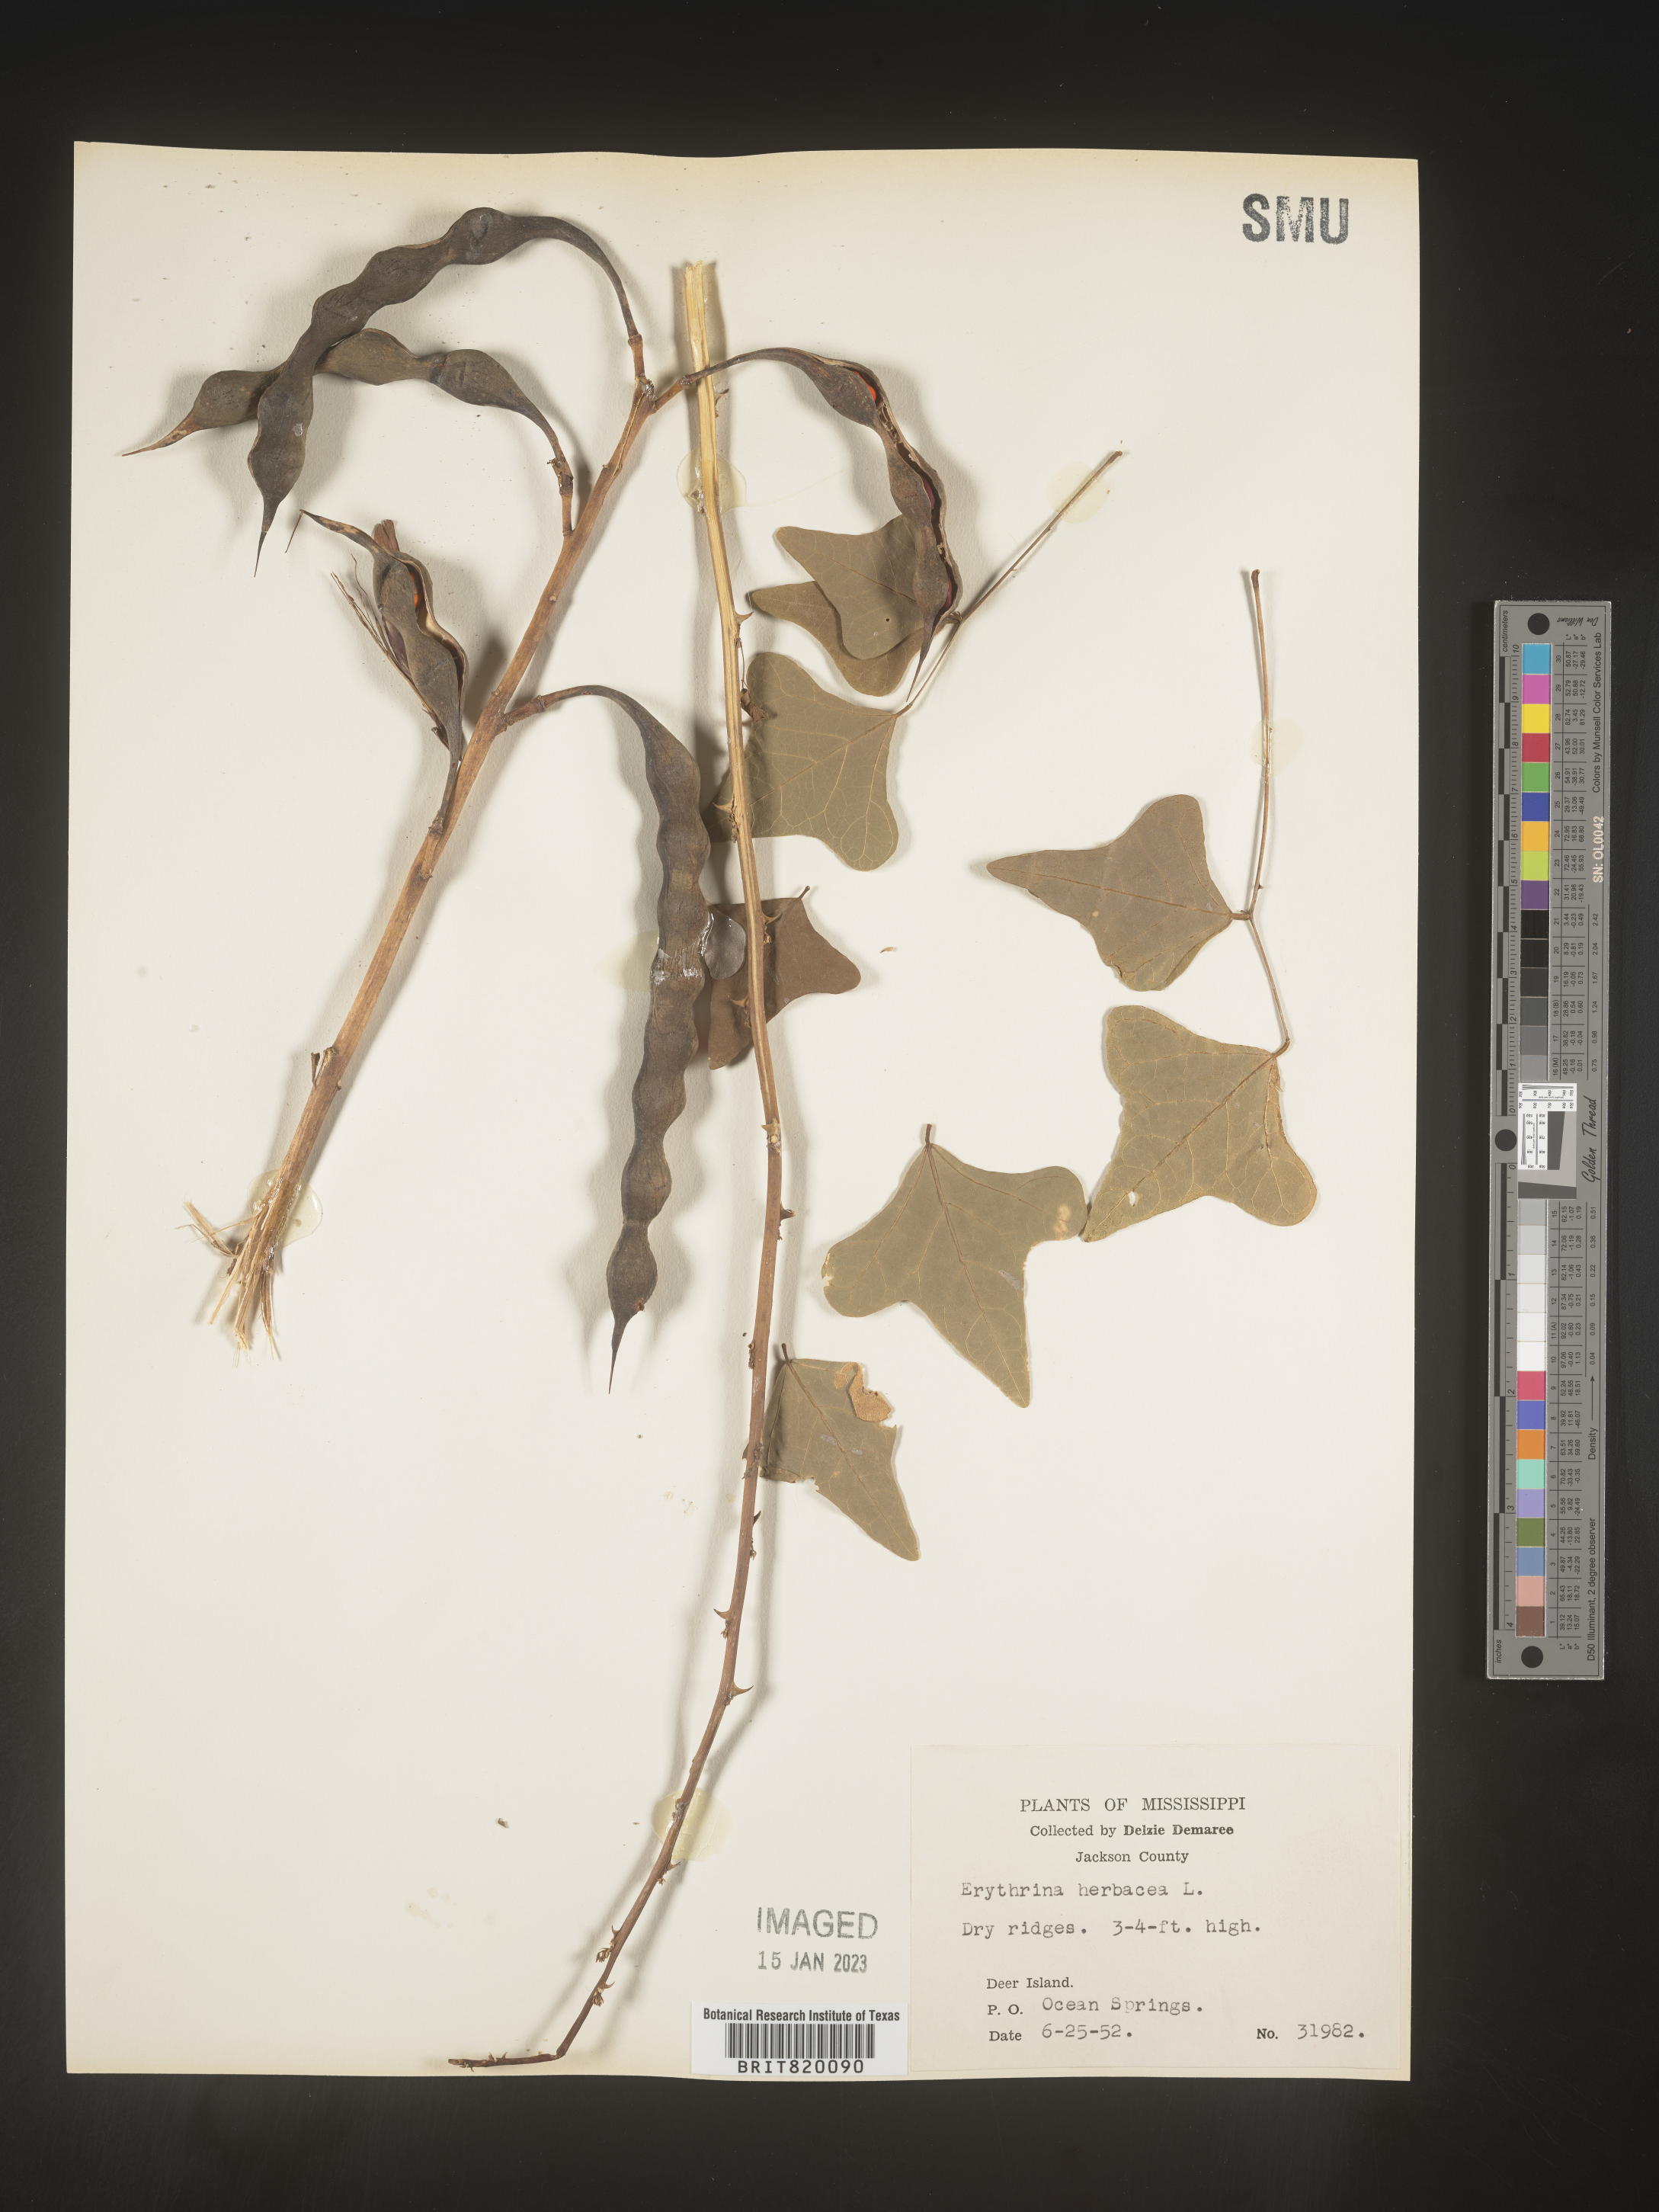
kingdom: Plantae
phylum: Tracheophyta
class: Magnoliopsida
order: Fabales
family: Fabaceae
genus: Erythrina
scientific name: Erythrina herbacea
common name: Coral-bean
